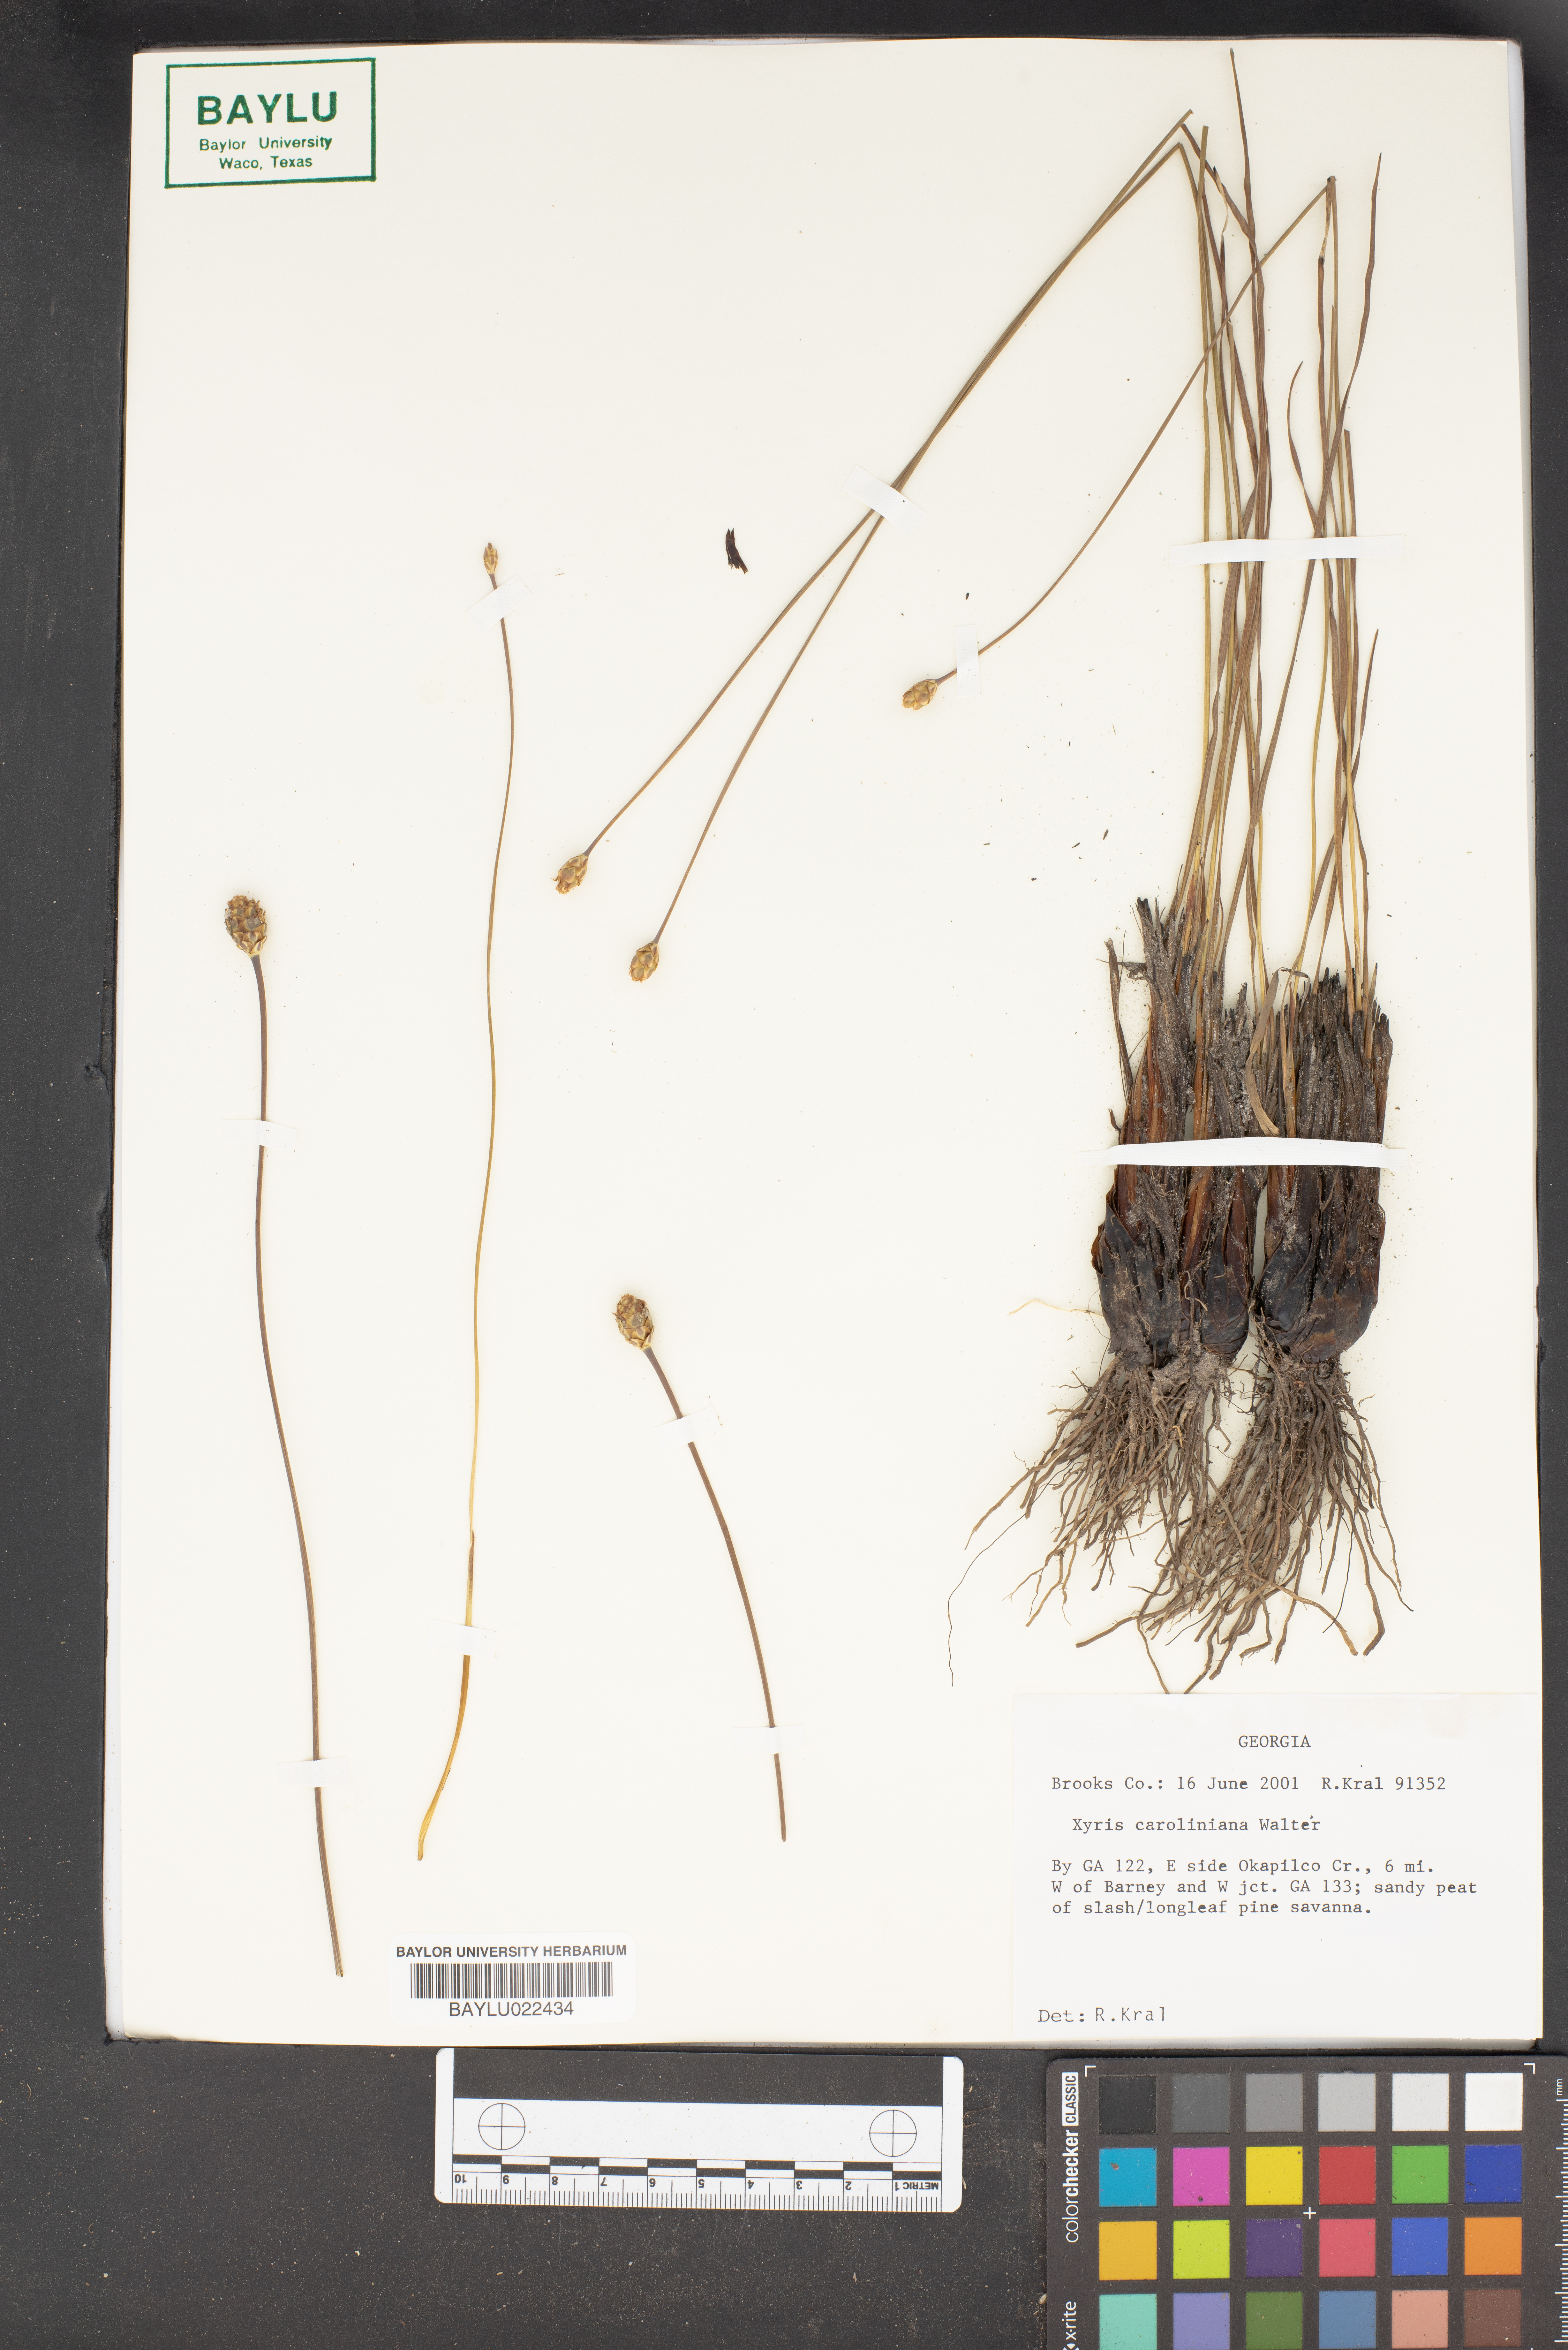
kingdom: Plantae
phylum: Tracheophyta
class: Liliopsida
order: Poales
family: Xyridaceae
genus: Xyris
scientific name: Xyris caroliniana
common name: Carolina yellow-eyed-grass
